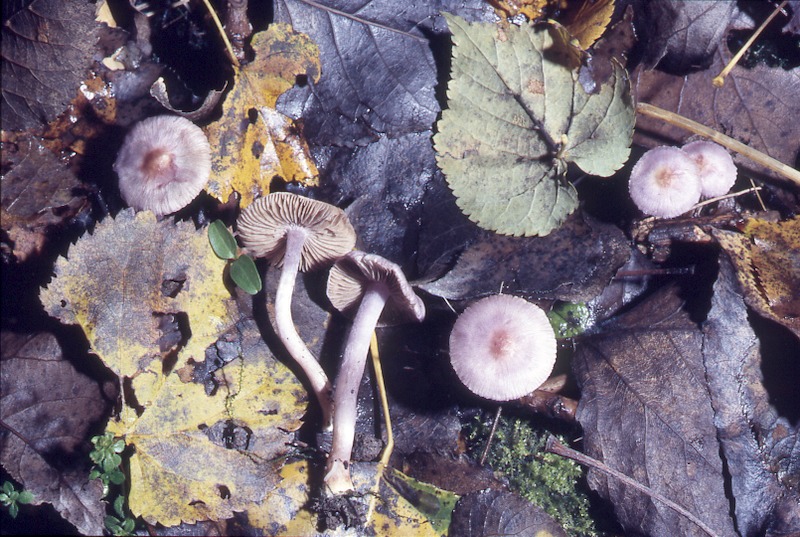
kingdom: Fungi
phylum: Basidiomycota
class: Agaricomycetes
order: Agaricales
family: Inocybaceae
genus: Inocybe
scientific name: Inocybe geophylla
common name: White fibrecap
